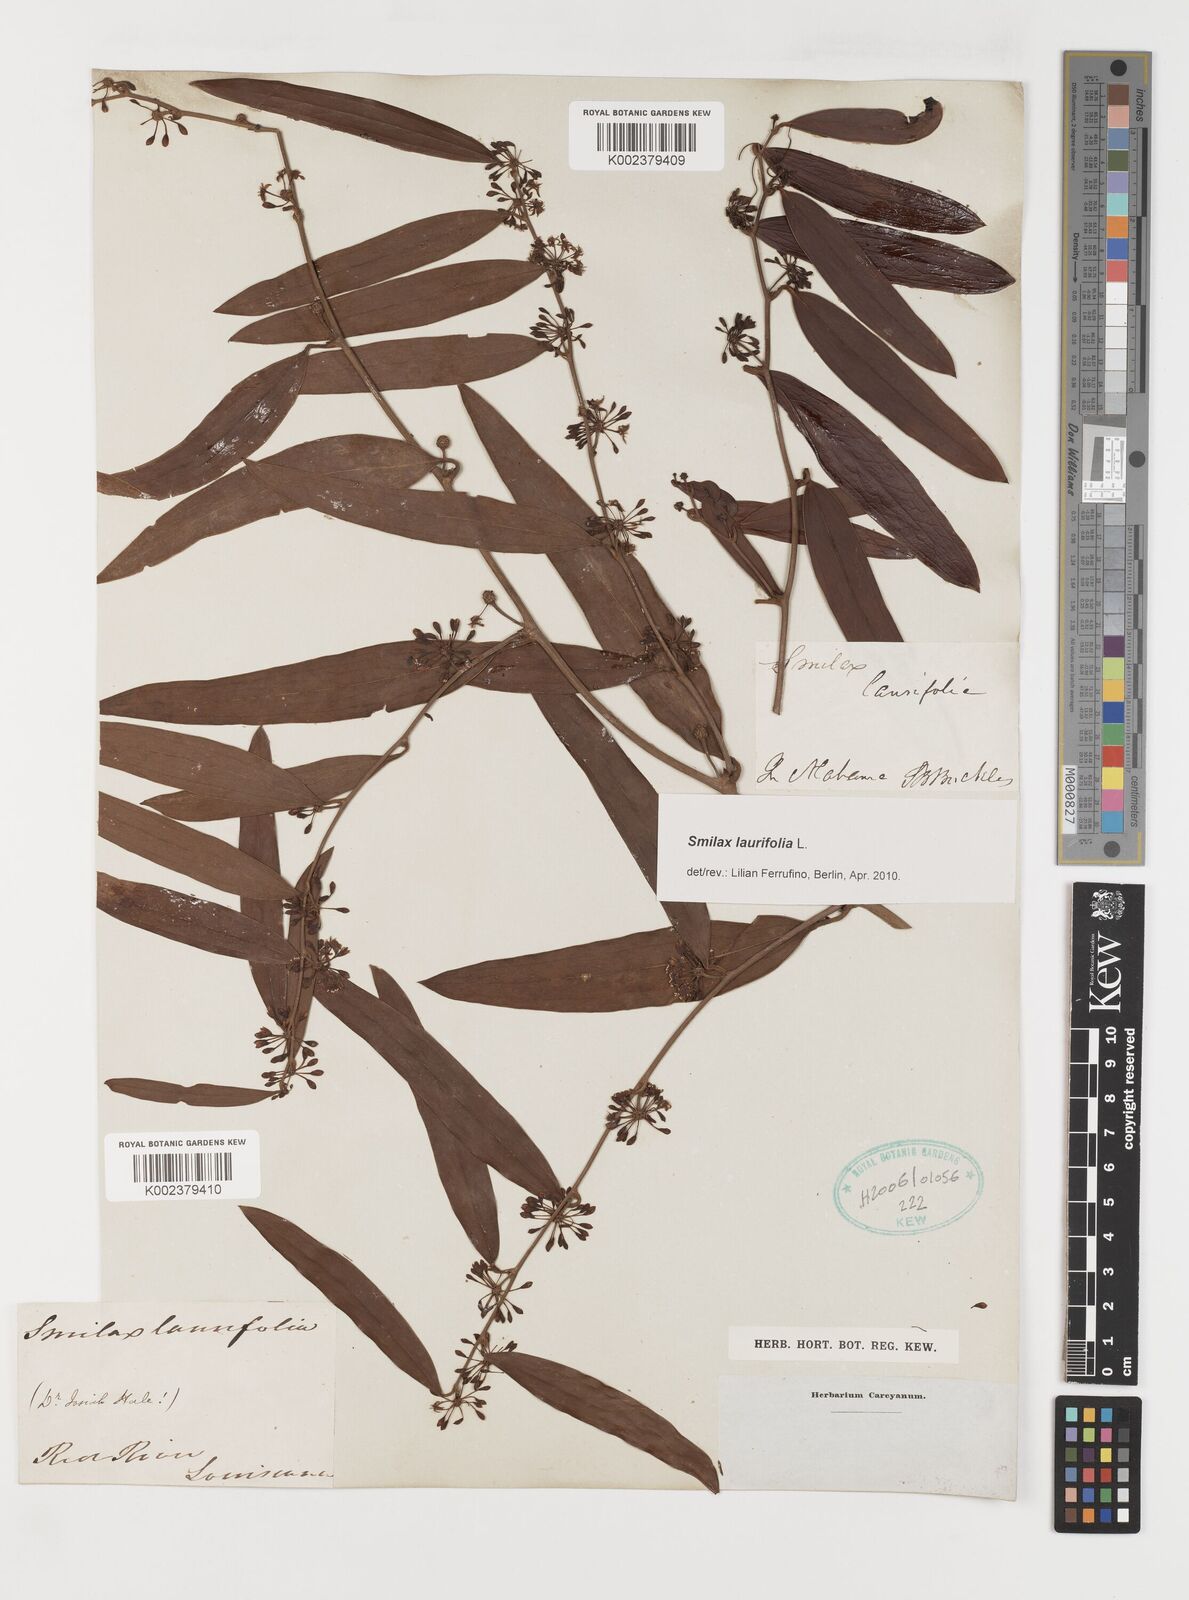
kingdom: Plantae
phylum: Tracheophyta
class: Liliopsida
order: Liliales
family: Smilacaceae
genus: Smilax
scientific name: Smilax laurifolia
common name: Bamboovine
